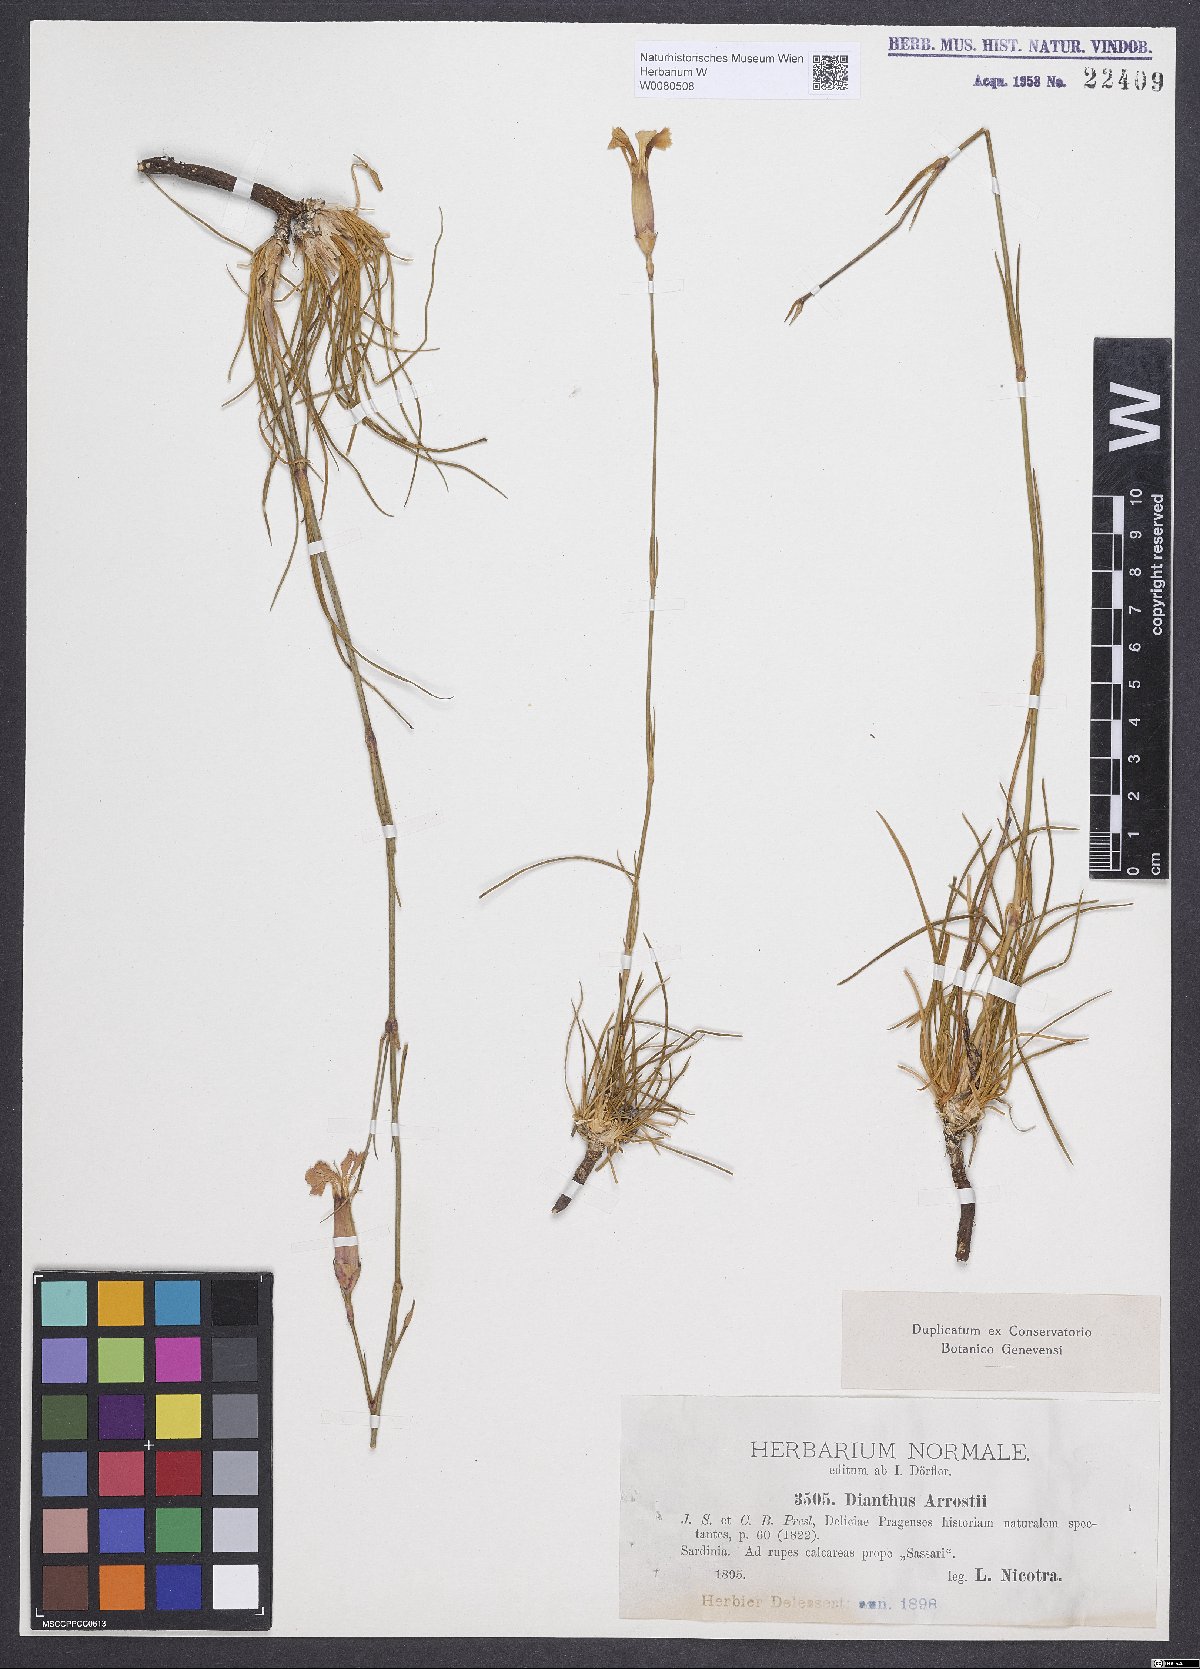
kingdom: Plantae
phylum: Tracheophyta
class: Magnoliopsida
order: Caryophyllales
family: Caryophyllaceae
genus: Dianthus
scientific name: Dianthus arrostii
